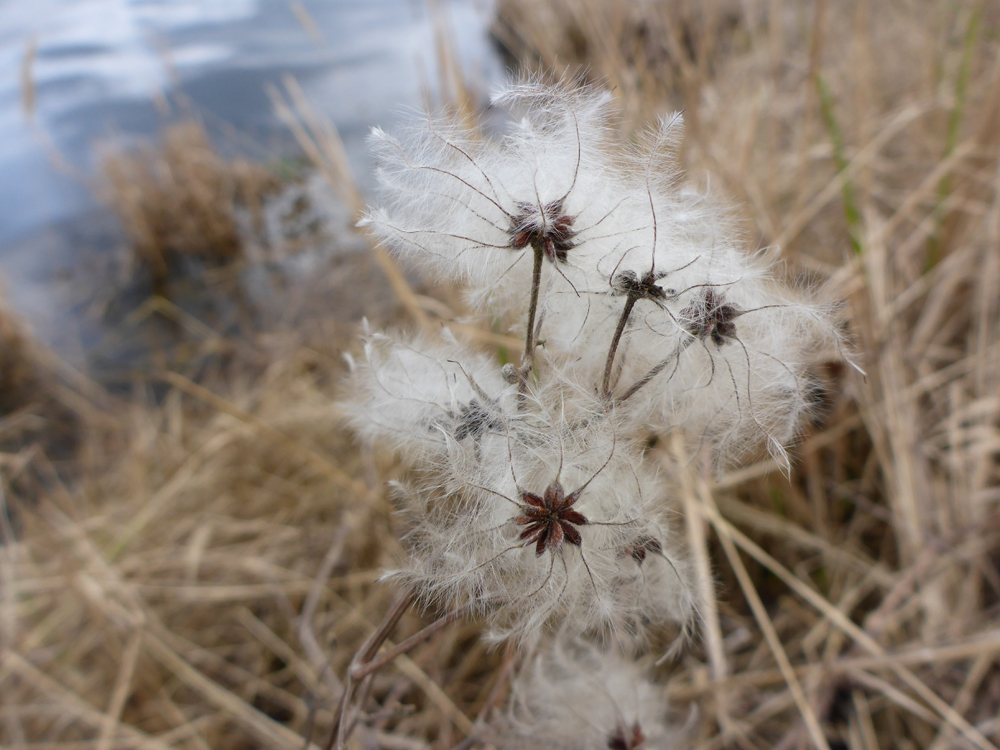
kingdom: Plantae
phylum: Tracheophyta
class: Magnoliopsida
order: Ranunculales
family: Ranunculaceae
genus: Clematis
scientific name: Clematis vitalba
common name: Evergreen clematis
